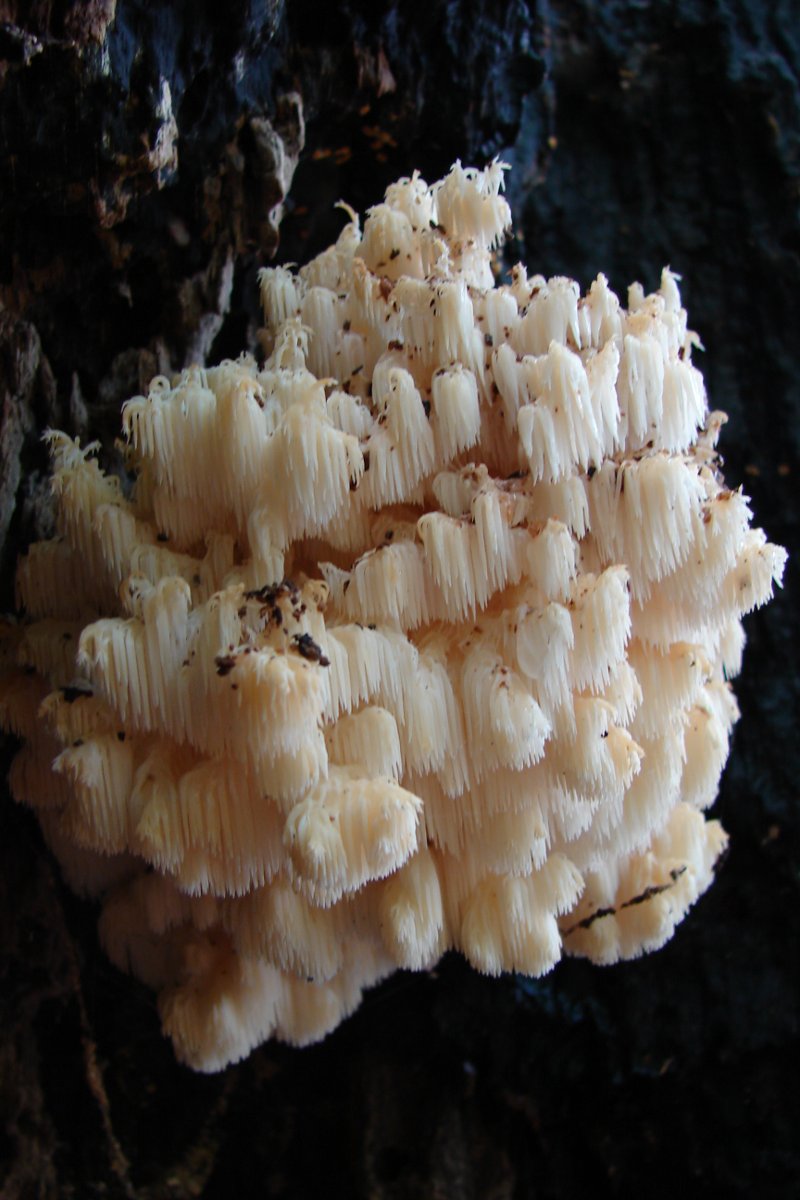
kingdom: Fungi
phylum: Basidiomycota
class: Agaricomycetes
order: Russulales
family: Hericiaceae
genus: Hericium
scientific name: Hericium coralloides
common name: koralpigsvamp
